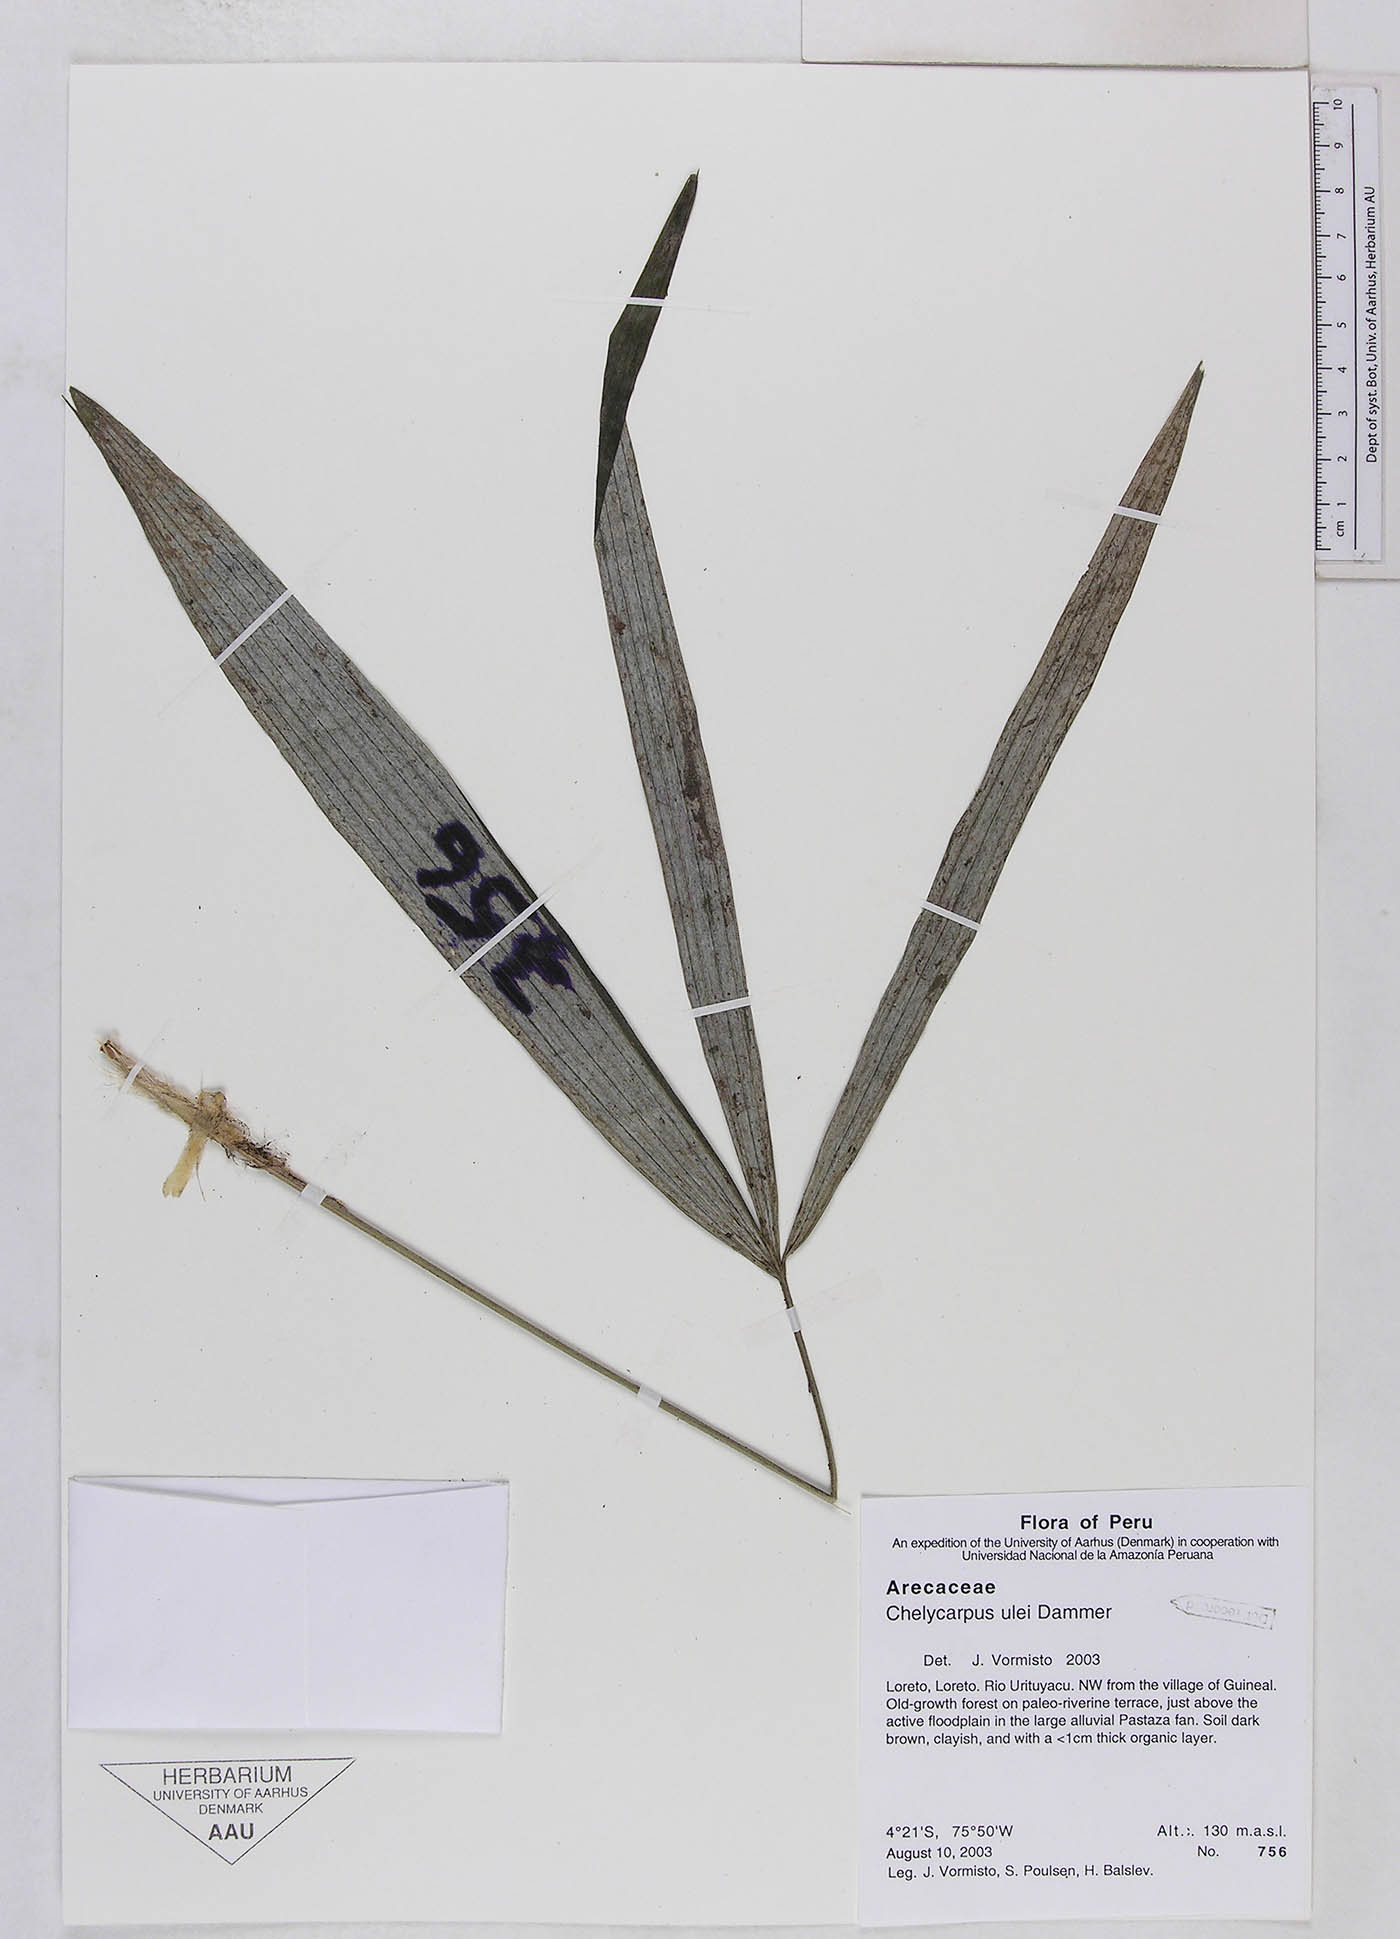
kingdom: Plantae
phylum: Tracheophyta
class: Liliopsida
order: Arecales
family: Arecaceae
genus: Chelyocarpus
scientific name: Chelyocarpus ulei
